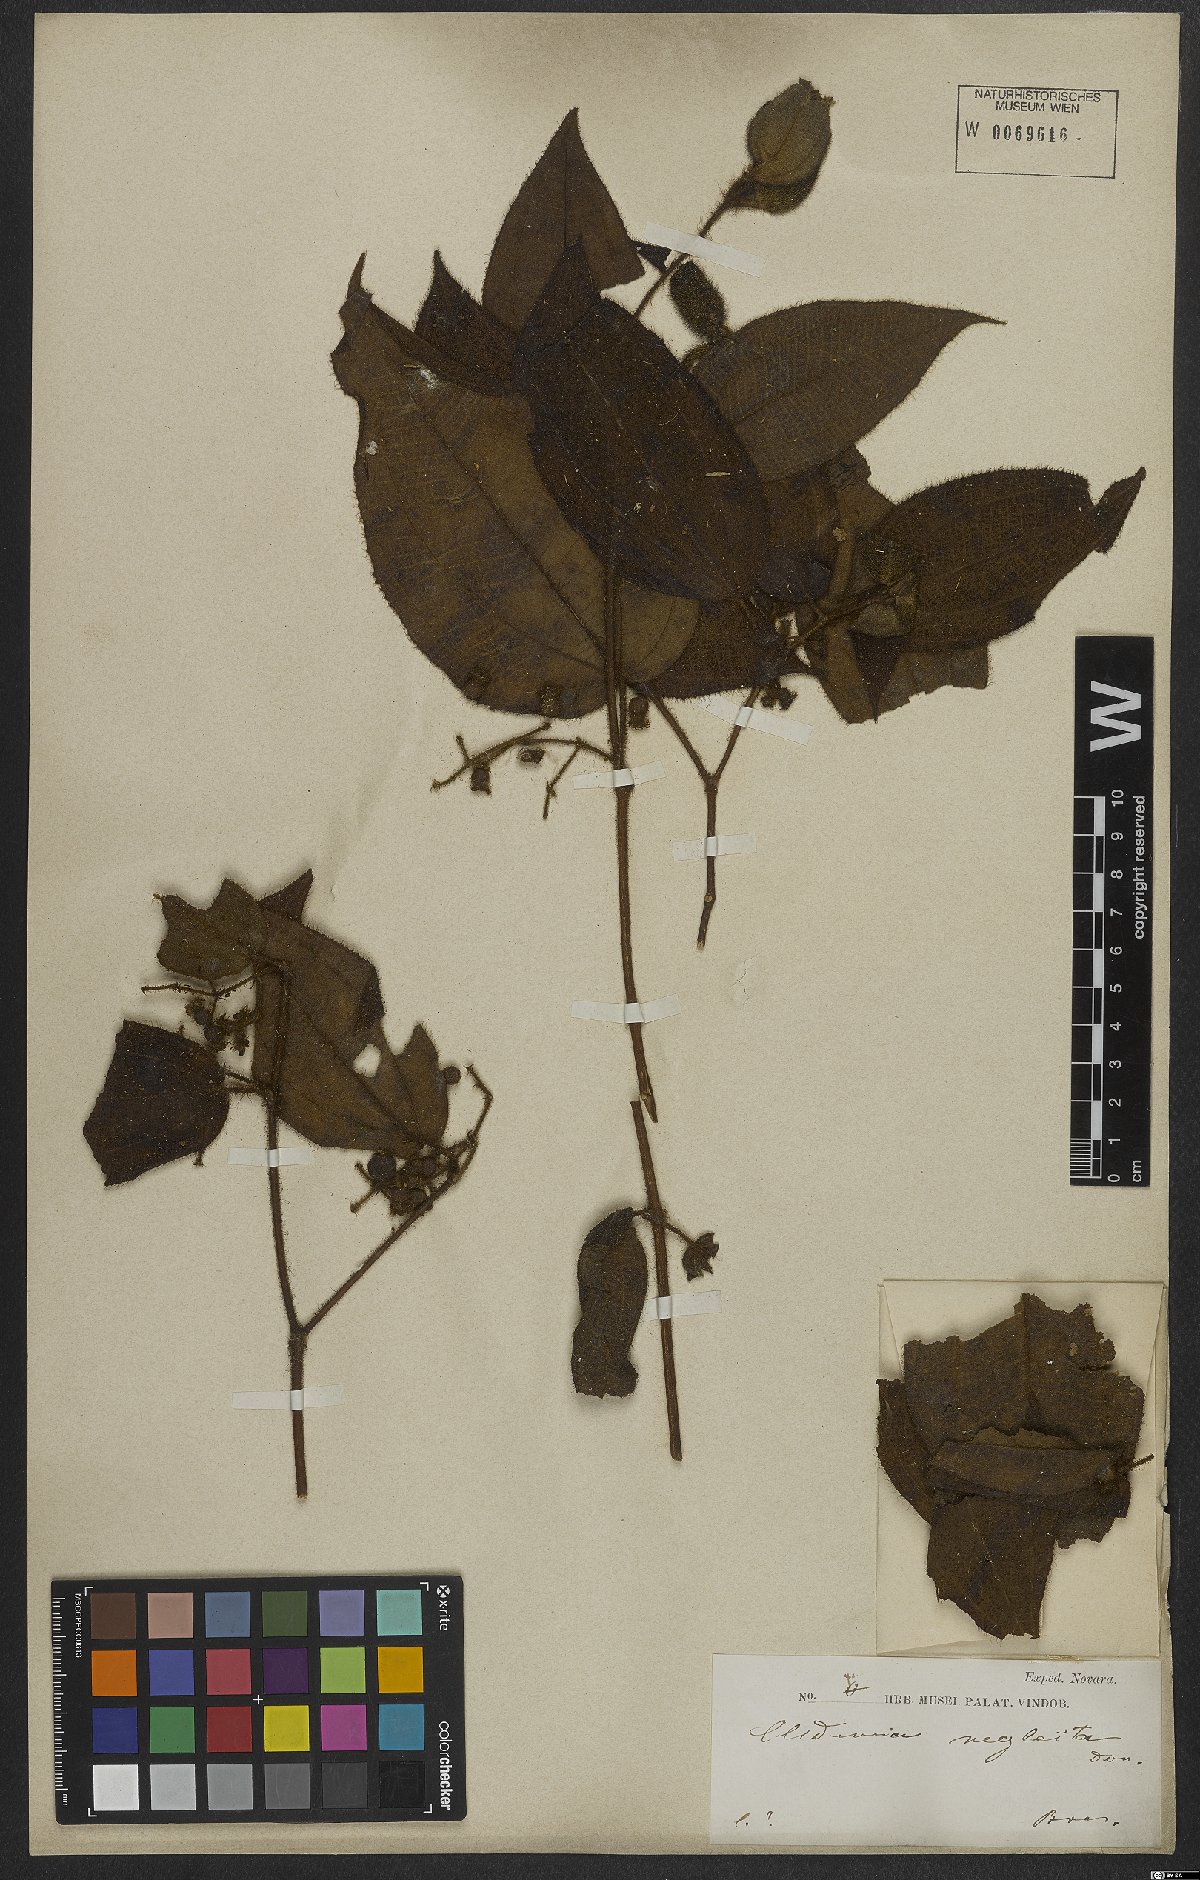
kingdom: Plantae
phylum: Tracheophyta
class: Magnoliopsida
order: Myrtales
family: Melastomataceae
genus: Miconia
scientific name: Miconia dependens
